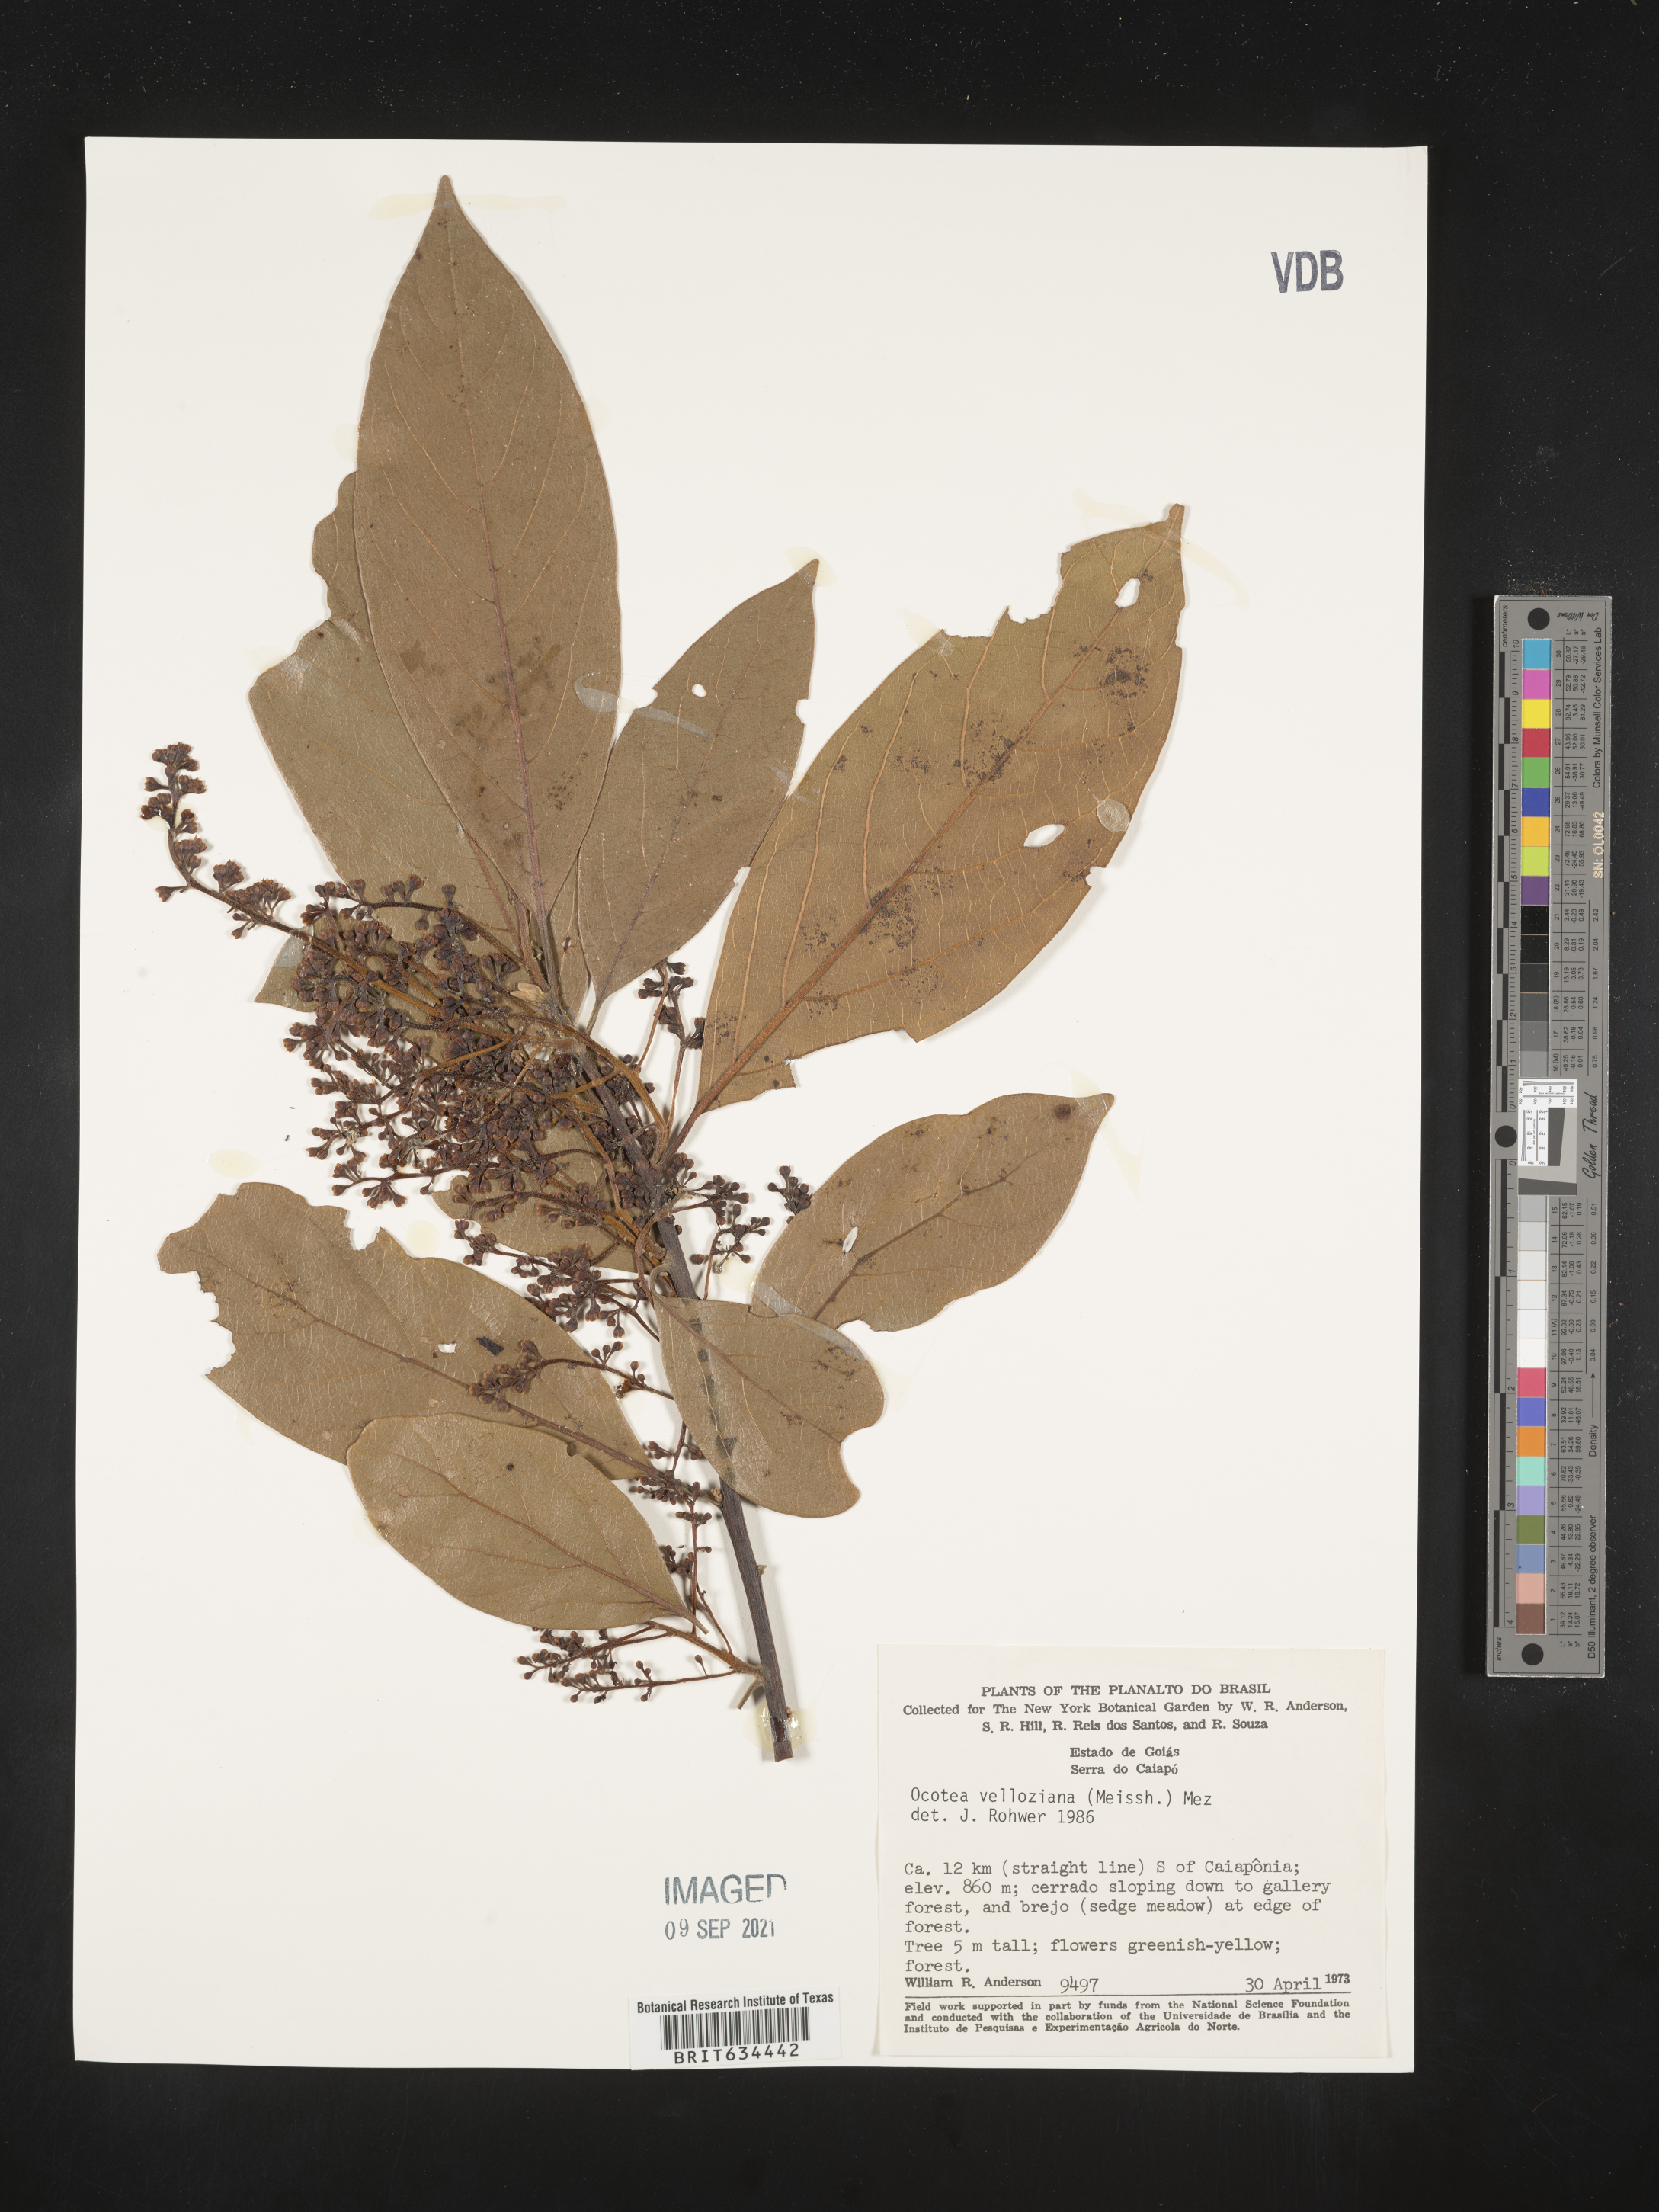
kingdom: Plantae
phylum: Tracheophyta
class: Magnoliopsida
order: Laurales
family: Lauraceae
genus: Ocotea
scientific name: Ocotea
